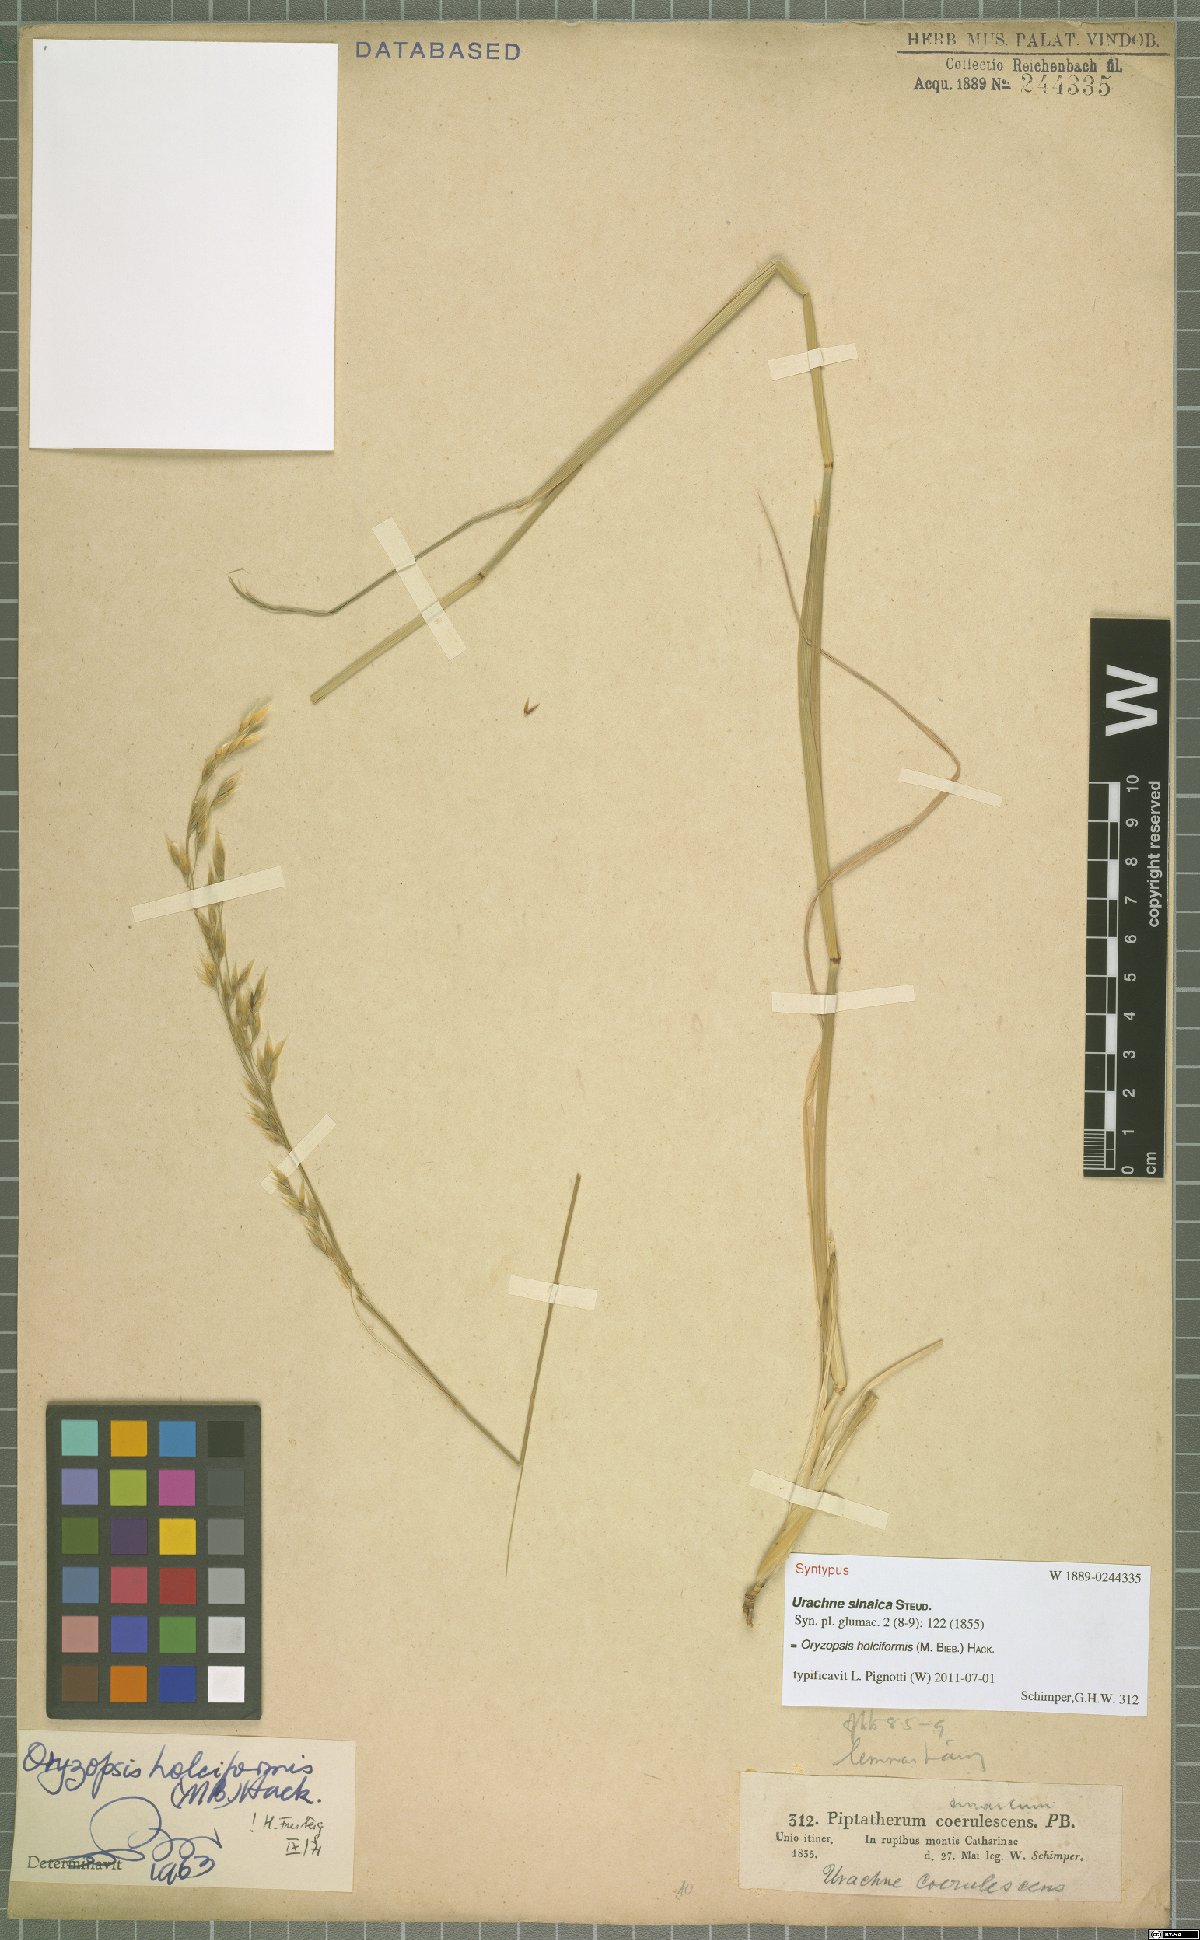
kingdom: Plantae
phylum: Tracheophyta
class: Liliopsida
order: Poales
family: Poaceae
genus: Piptatherum
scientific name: Piptatherum holciforme
